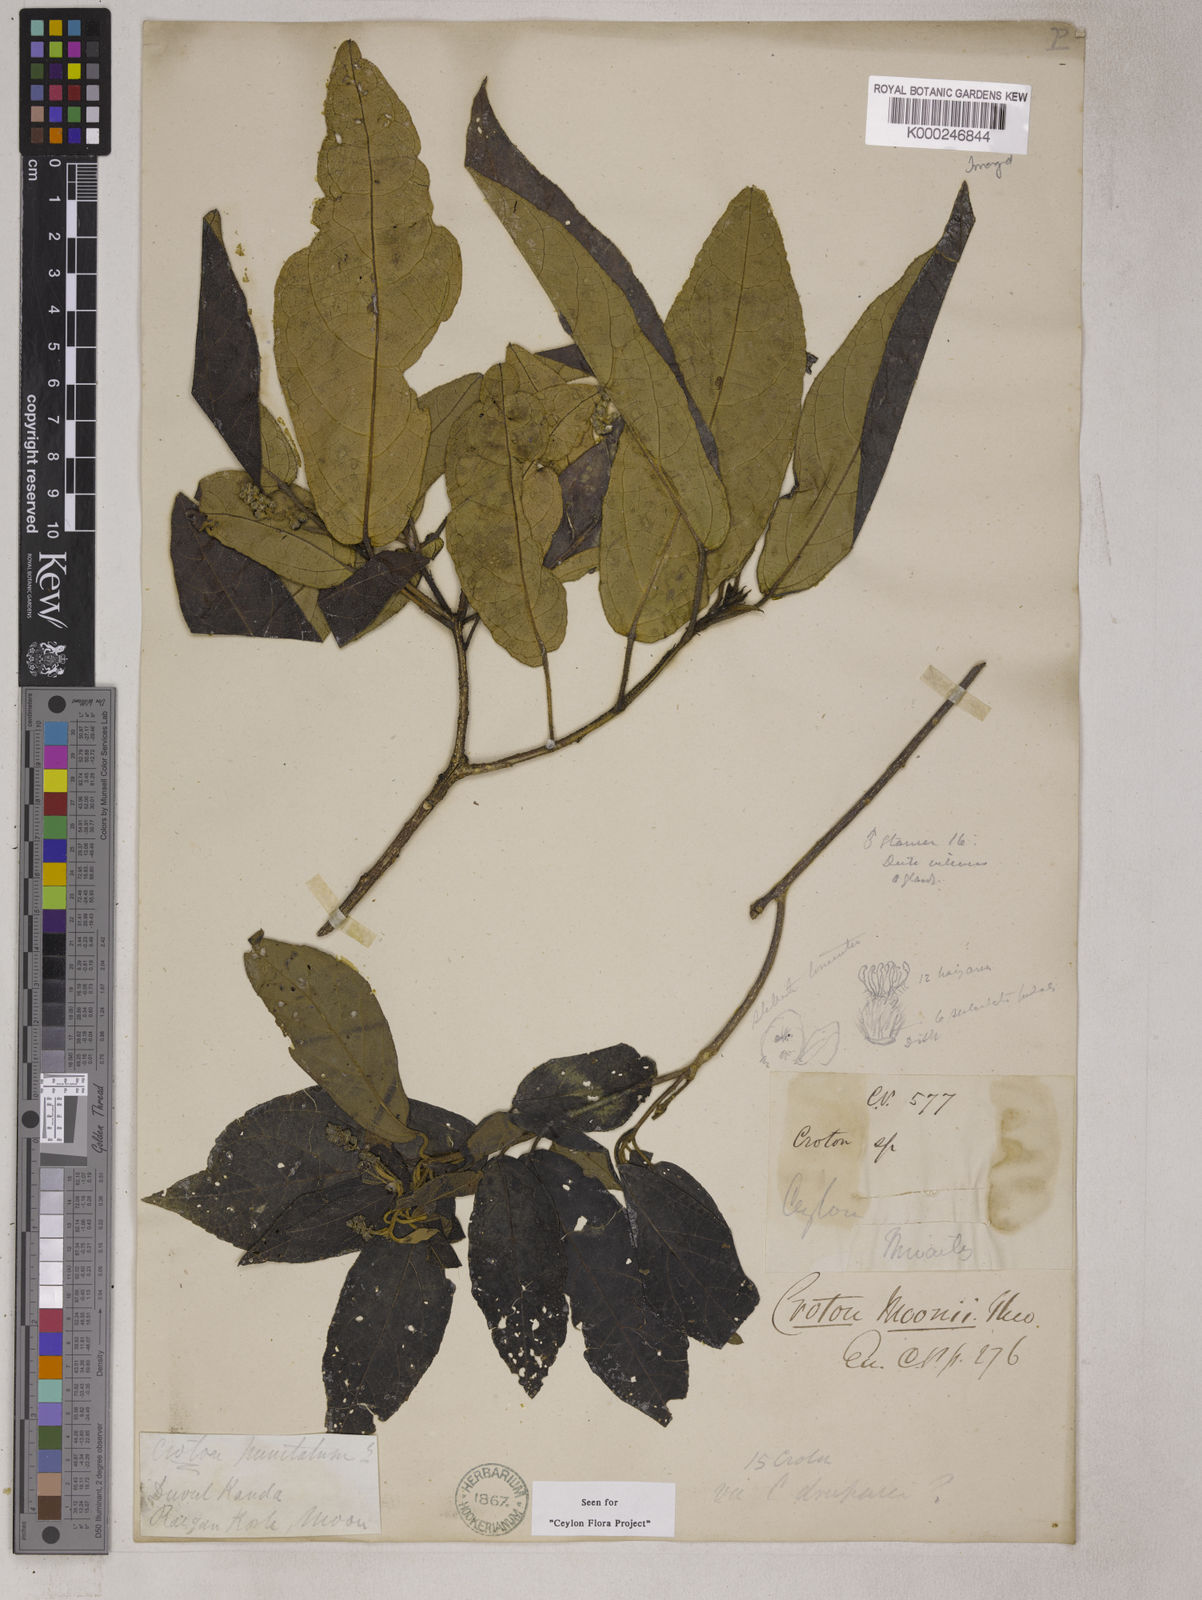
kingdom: Plantae
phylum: Tracheophyta
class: Magnoliopsida
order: Malpighiales
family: Euphorbiaceae
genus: Croton
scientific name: Croton moonii
